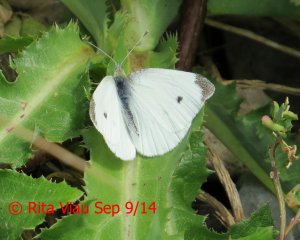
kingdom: Animalia
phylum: Arthropoda
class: Insecta
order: Lepidoptera
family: Pieridae
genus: Pieris
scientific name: Pieris rapae
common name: Cabbage White
